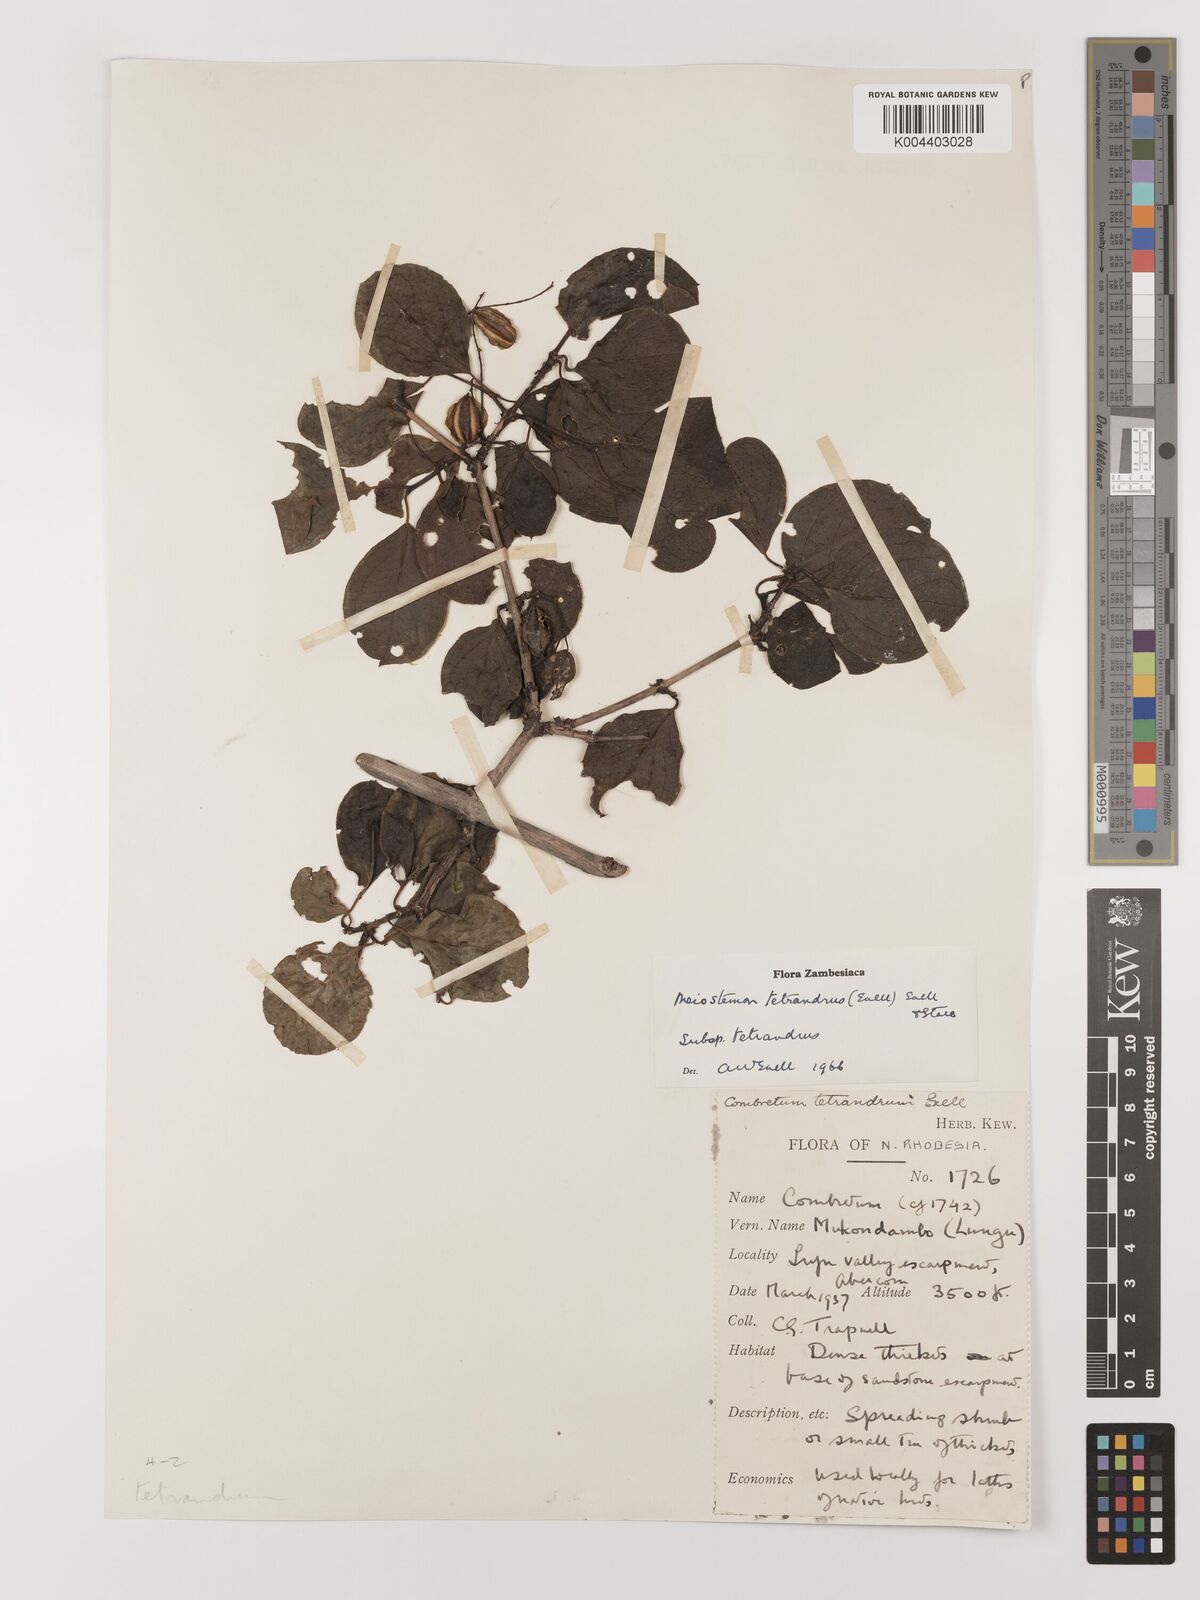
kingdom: Plantae
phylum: Tracheophyta
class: Magnoliopsida
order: Myrtales
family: Combretaceae
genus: Combretum
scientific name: Combretum tetrandrum
